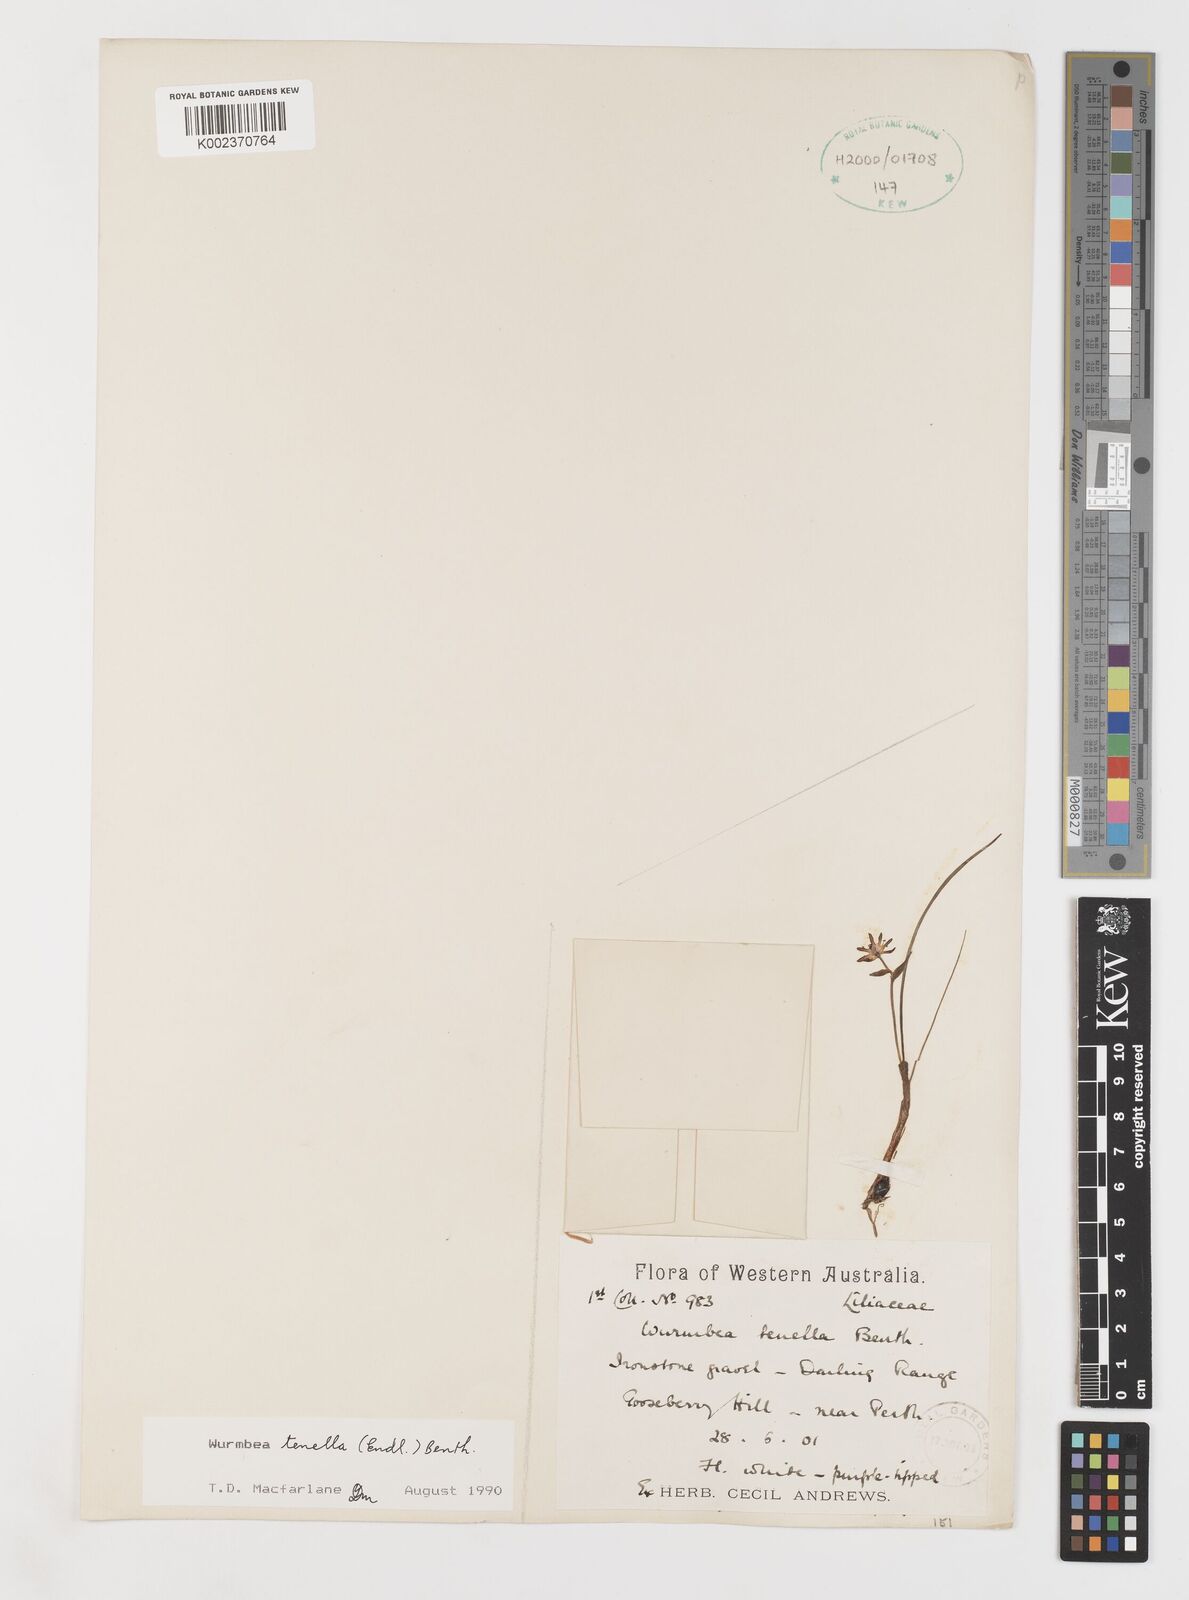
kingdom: Plantae
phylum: Tracheophyta
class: Liliopsida
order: Liliales
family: Colchicaceae
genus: Wurmbea
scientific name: Wurmbea tenella
